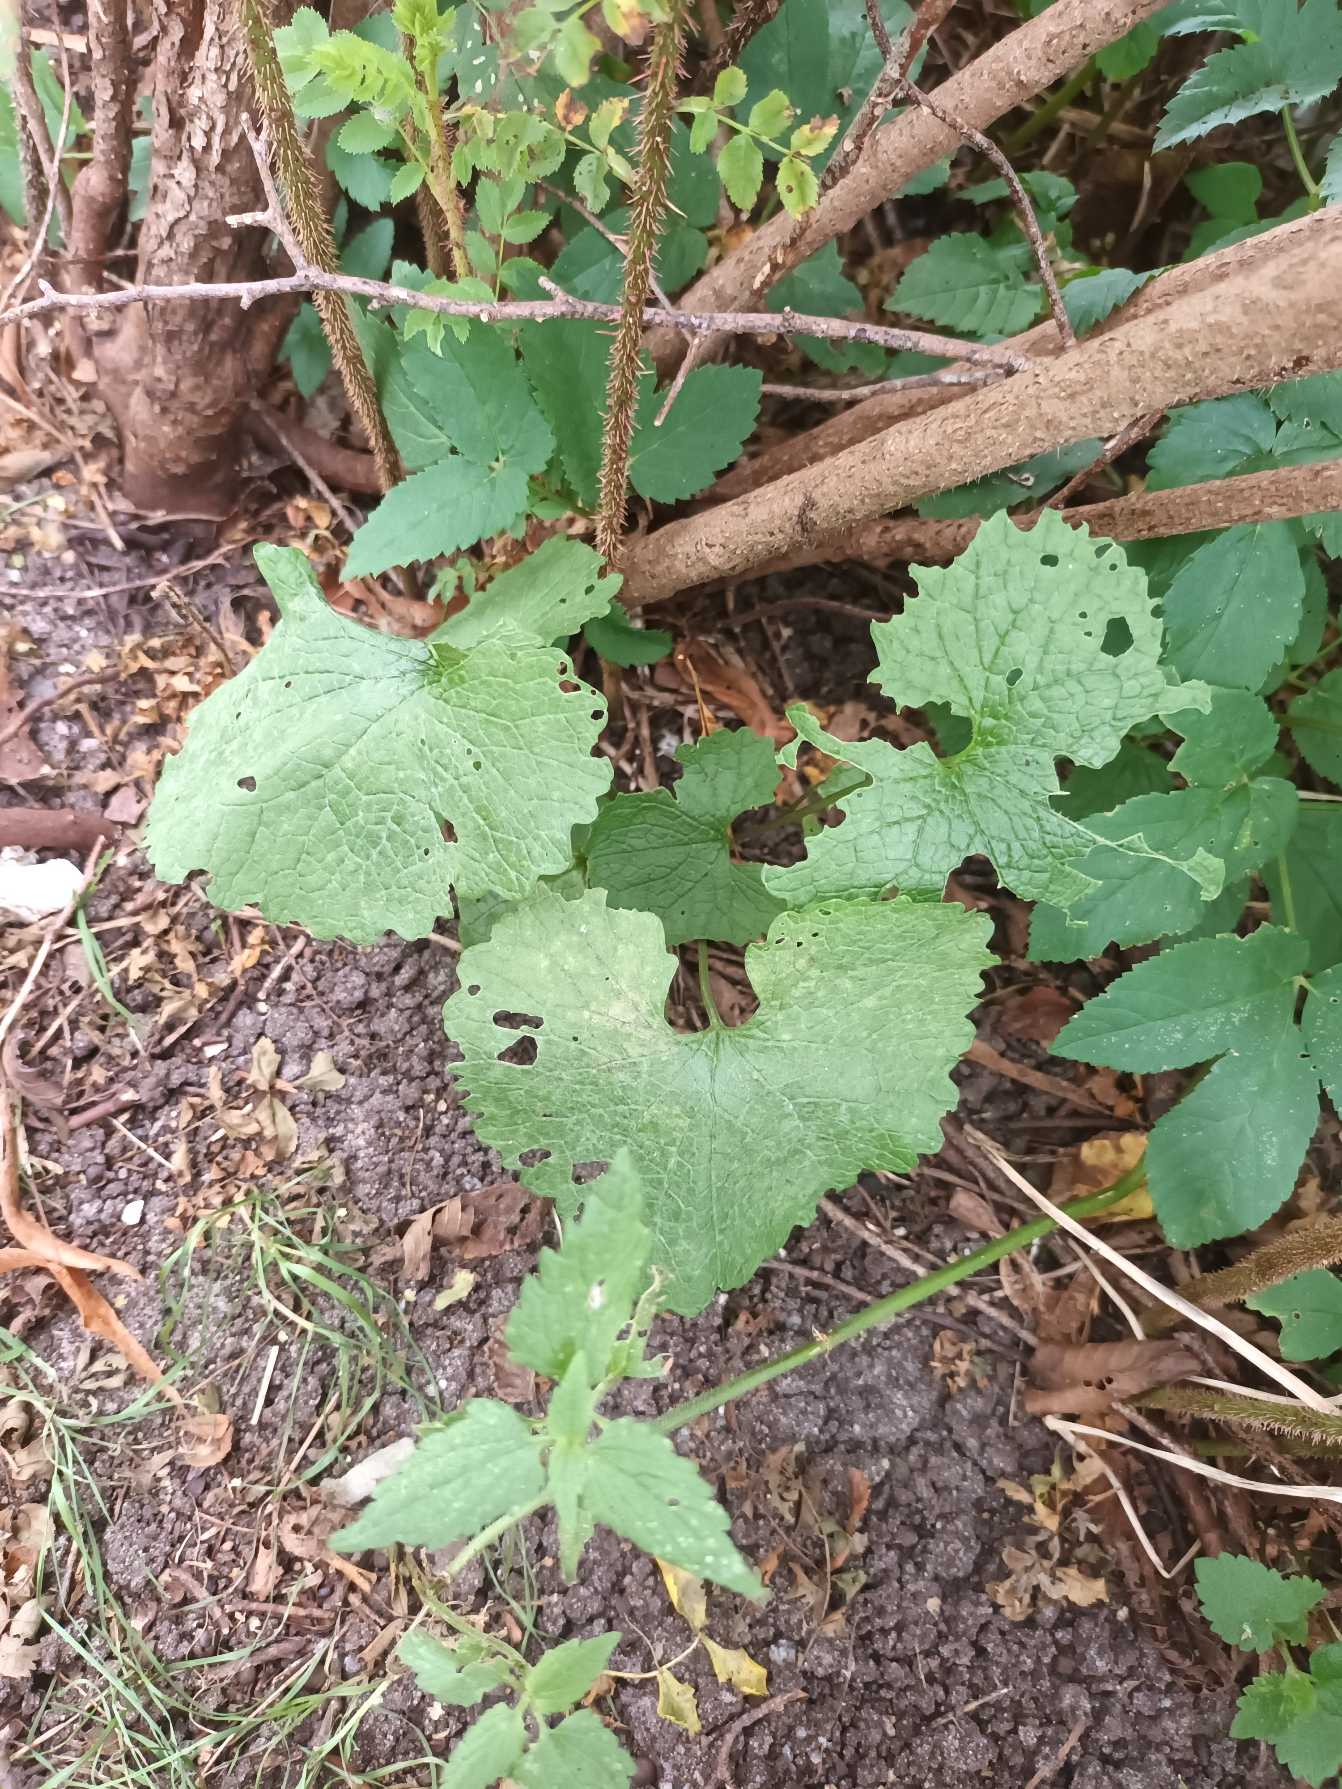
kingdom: Plantae
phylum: Tracheophyta
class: Magnoliopsida
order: Brassicales
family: Brassicaceae
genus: Alliaria
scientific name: Alliaria petiolata
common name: Løgkarse
